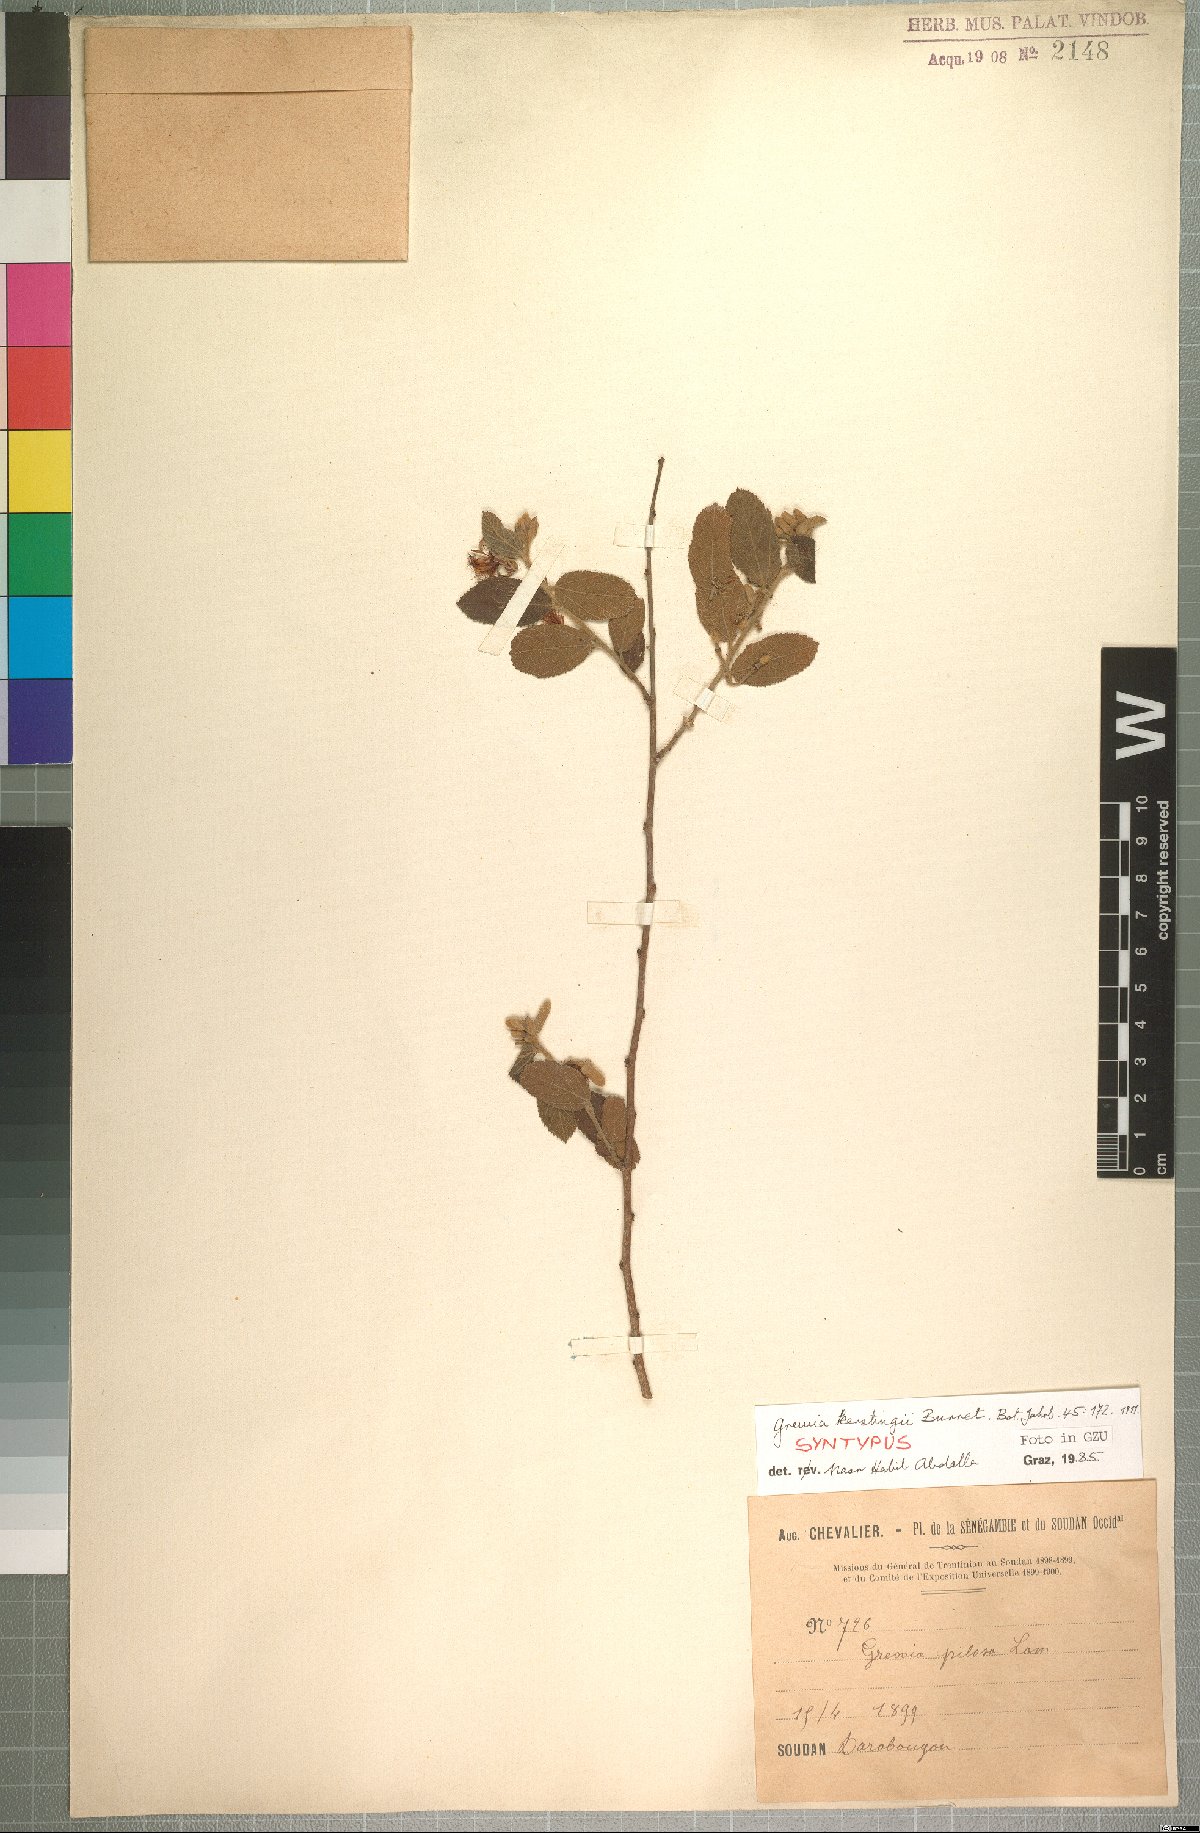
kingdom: Plantae
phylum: Tracheophyta
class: Magnoliopsida
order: Malvales
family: Malvaceae
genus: Grewia
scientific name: Grewia lasiodiscus
